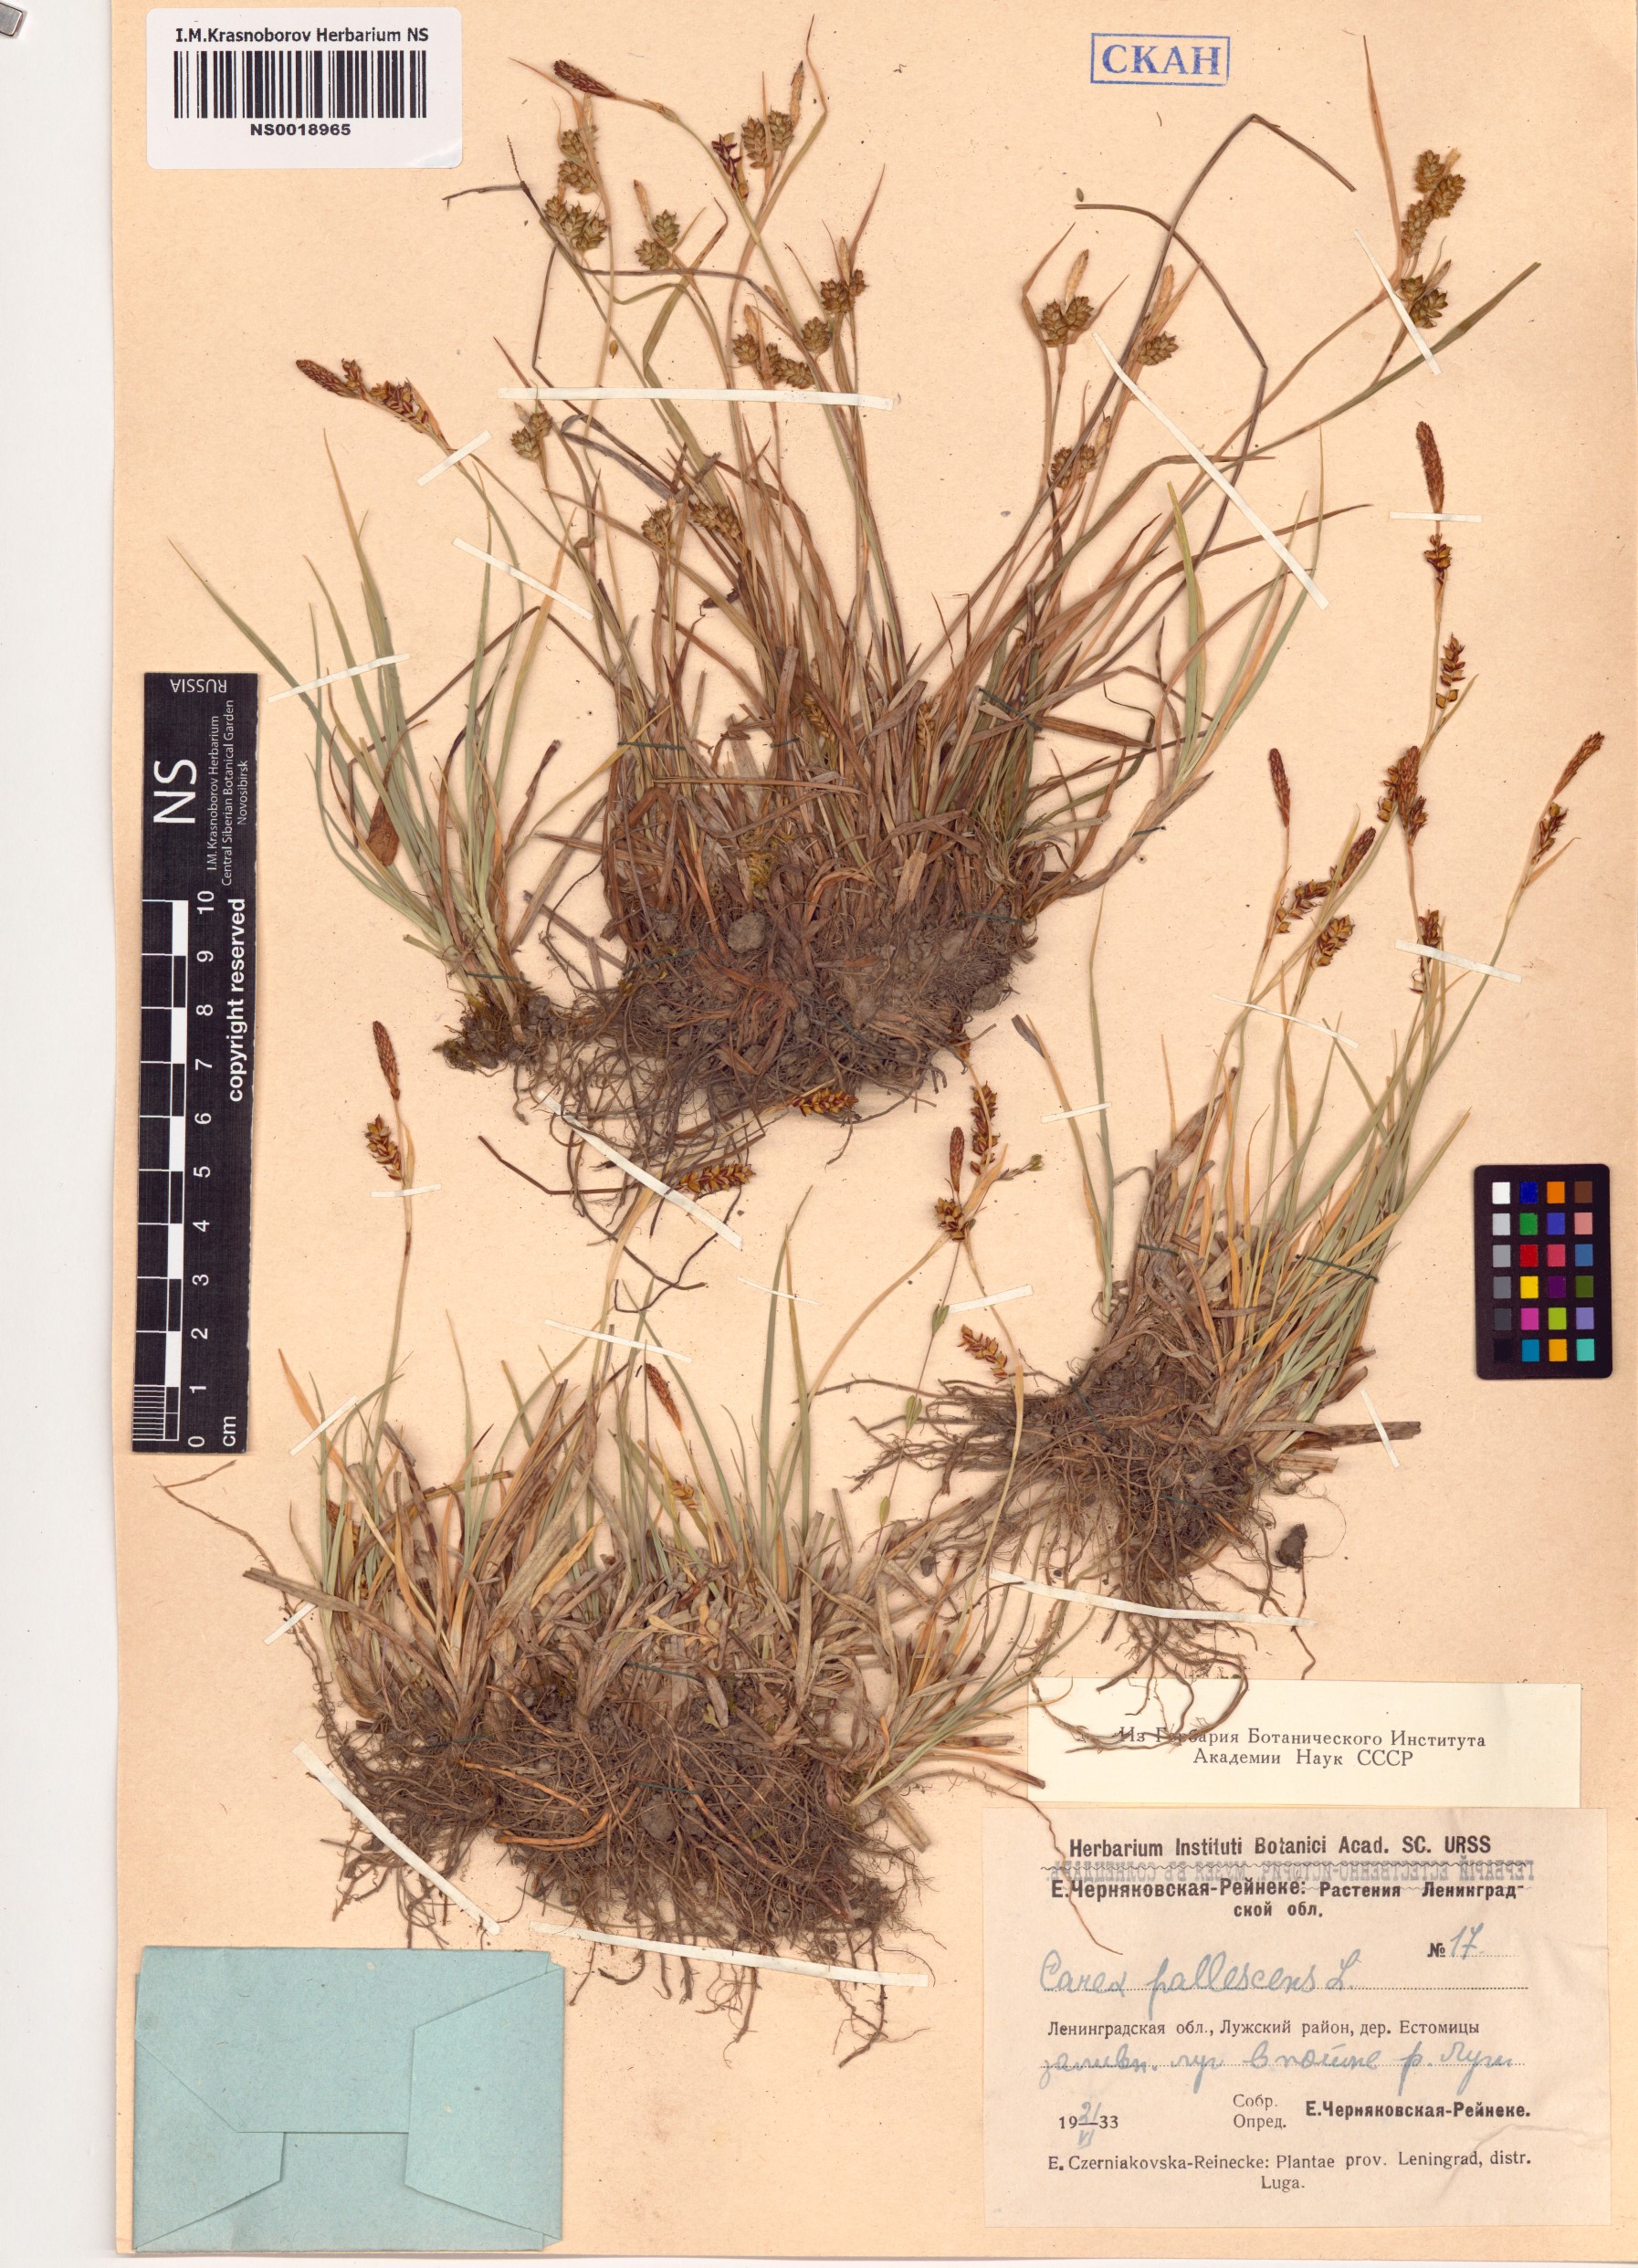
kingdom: Plantae
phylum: Tracheophyta
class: Liliopsida
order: Poales
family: Cyperaceae
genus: Carex
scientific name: Carex pallescens
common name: Pale sedge
